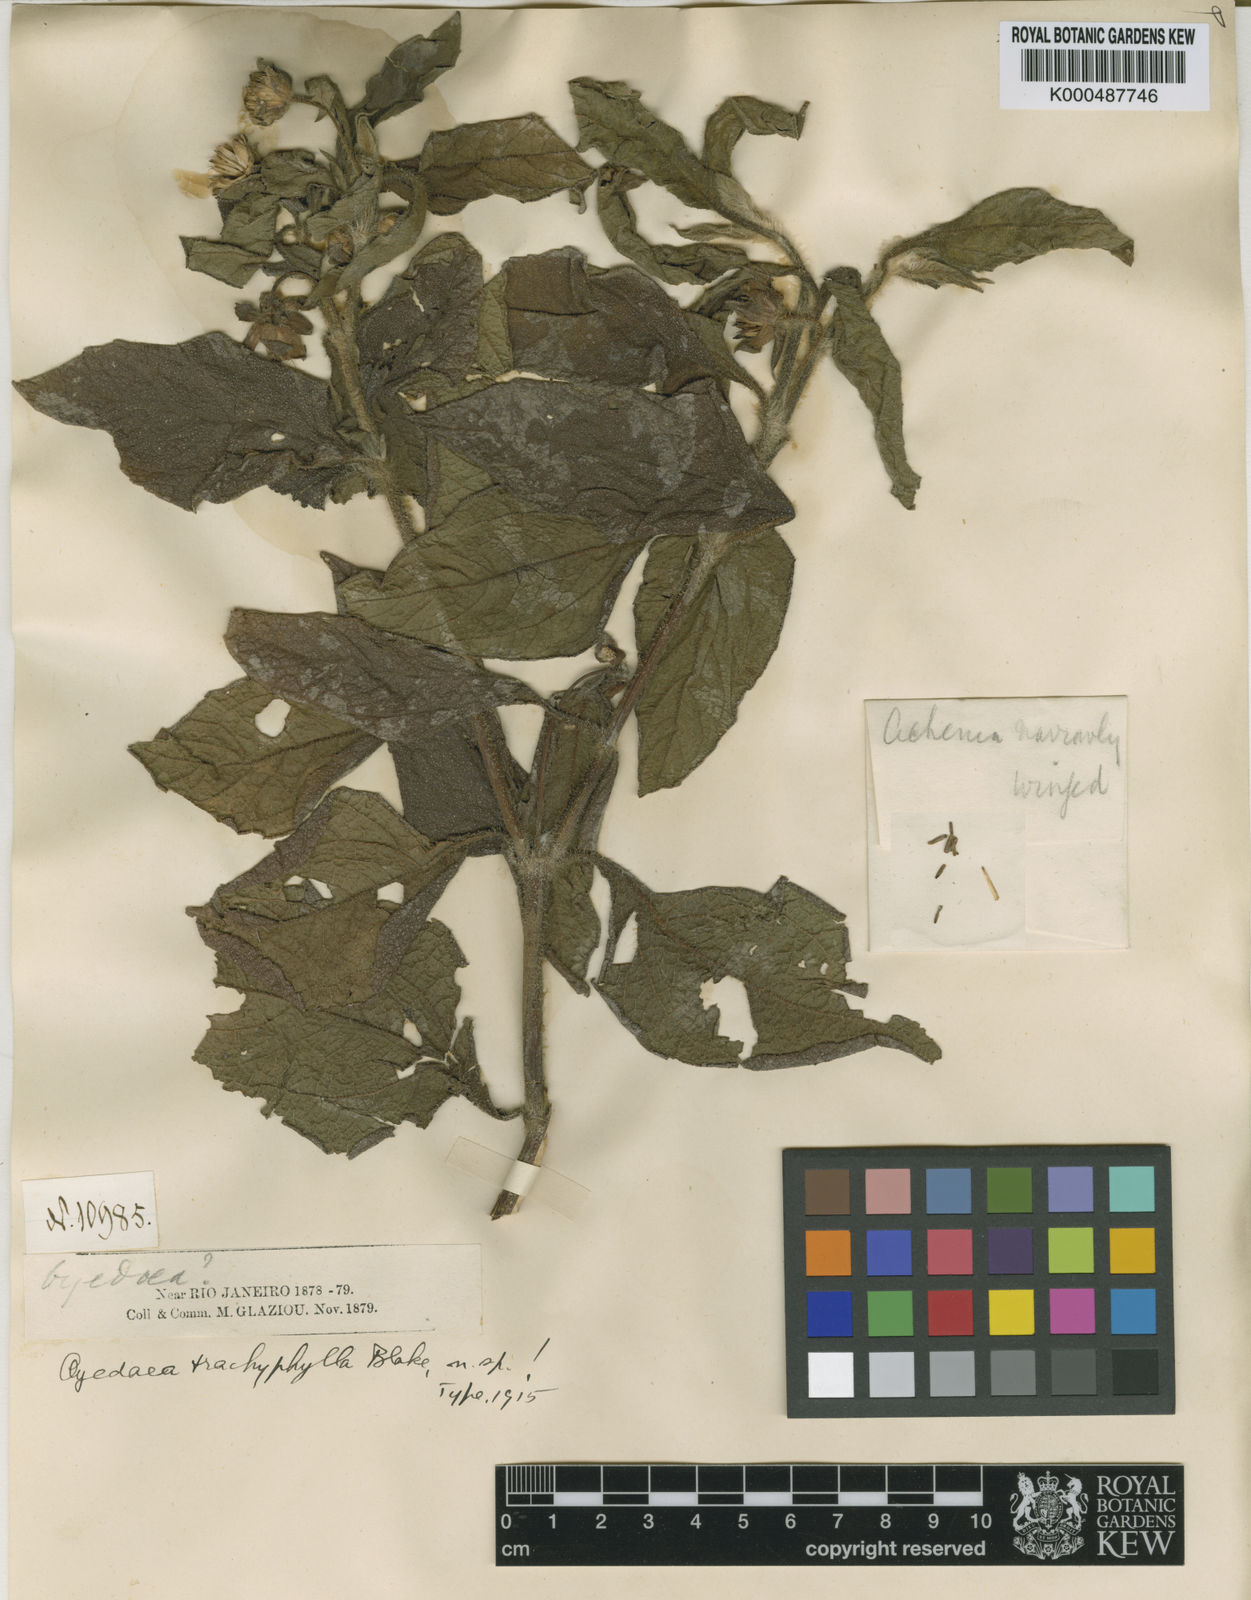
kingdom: Plantae
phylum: Tracheophyta
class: Magnoliopsida
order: Asterales
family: Asteraceae
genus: Oyedaea
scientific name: Oyedaea trachyphylla
